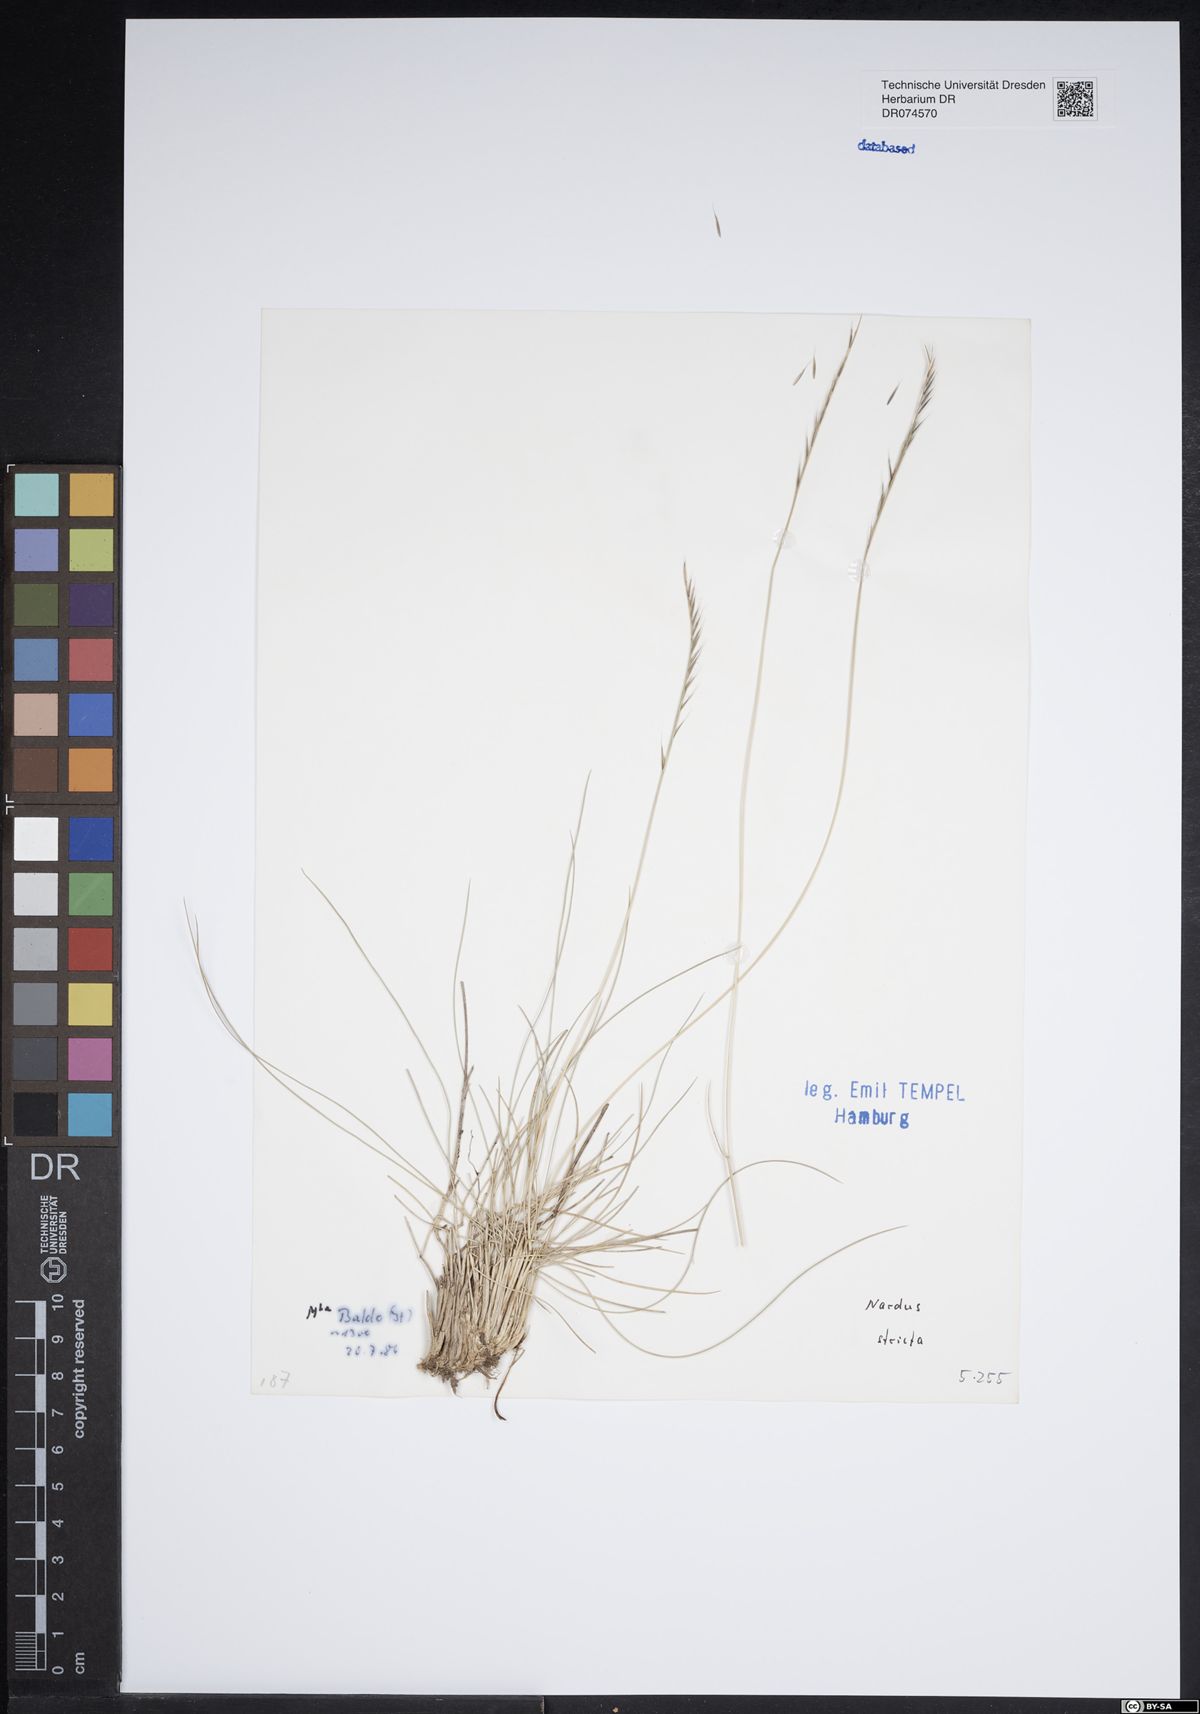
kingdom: Plantae
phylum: Tracheophyta
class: Liliopsida
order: Poales
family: Poaceae
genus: Nardus
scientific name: Nardus stricta
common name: Mat-grass
